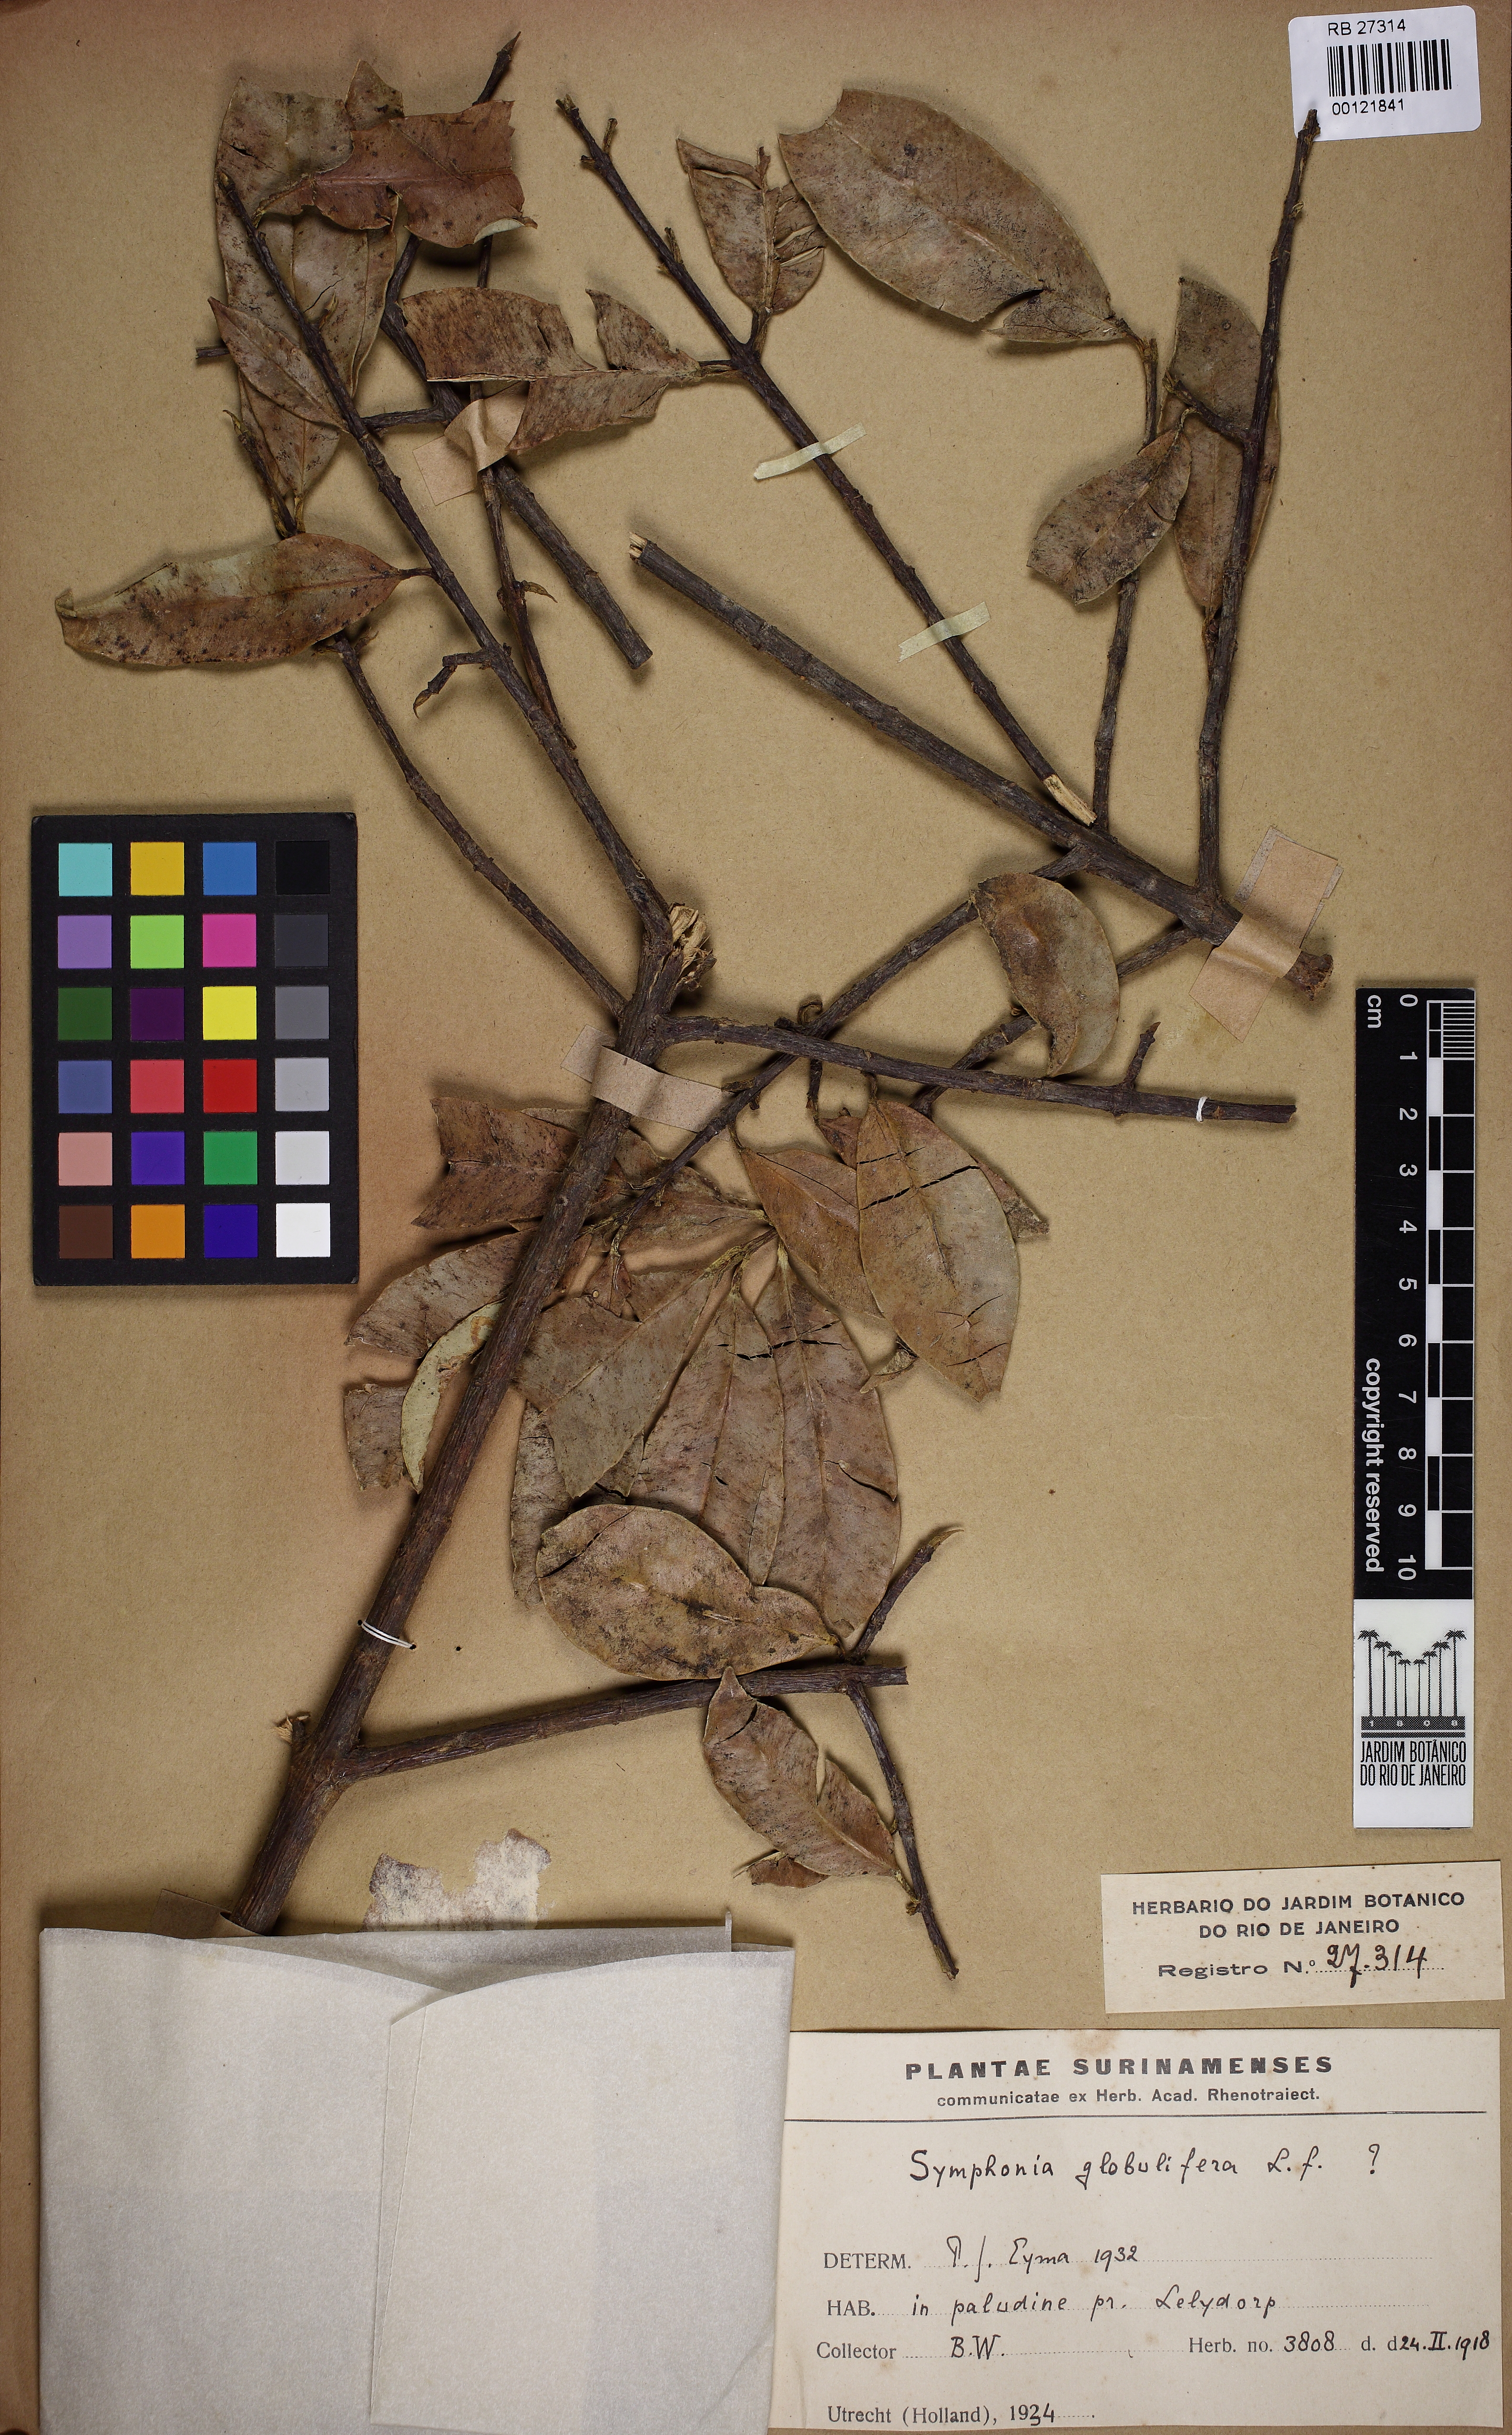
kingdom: Plantae
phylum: Tracheophyta
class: Magnoliopsida
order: Malpighiales
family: Clusiaceae
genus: Symphonia
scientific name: Symphonia globulifera
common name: Boarwood
